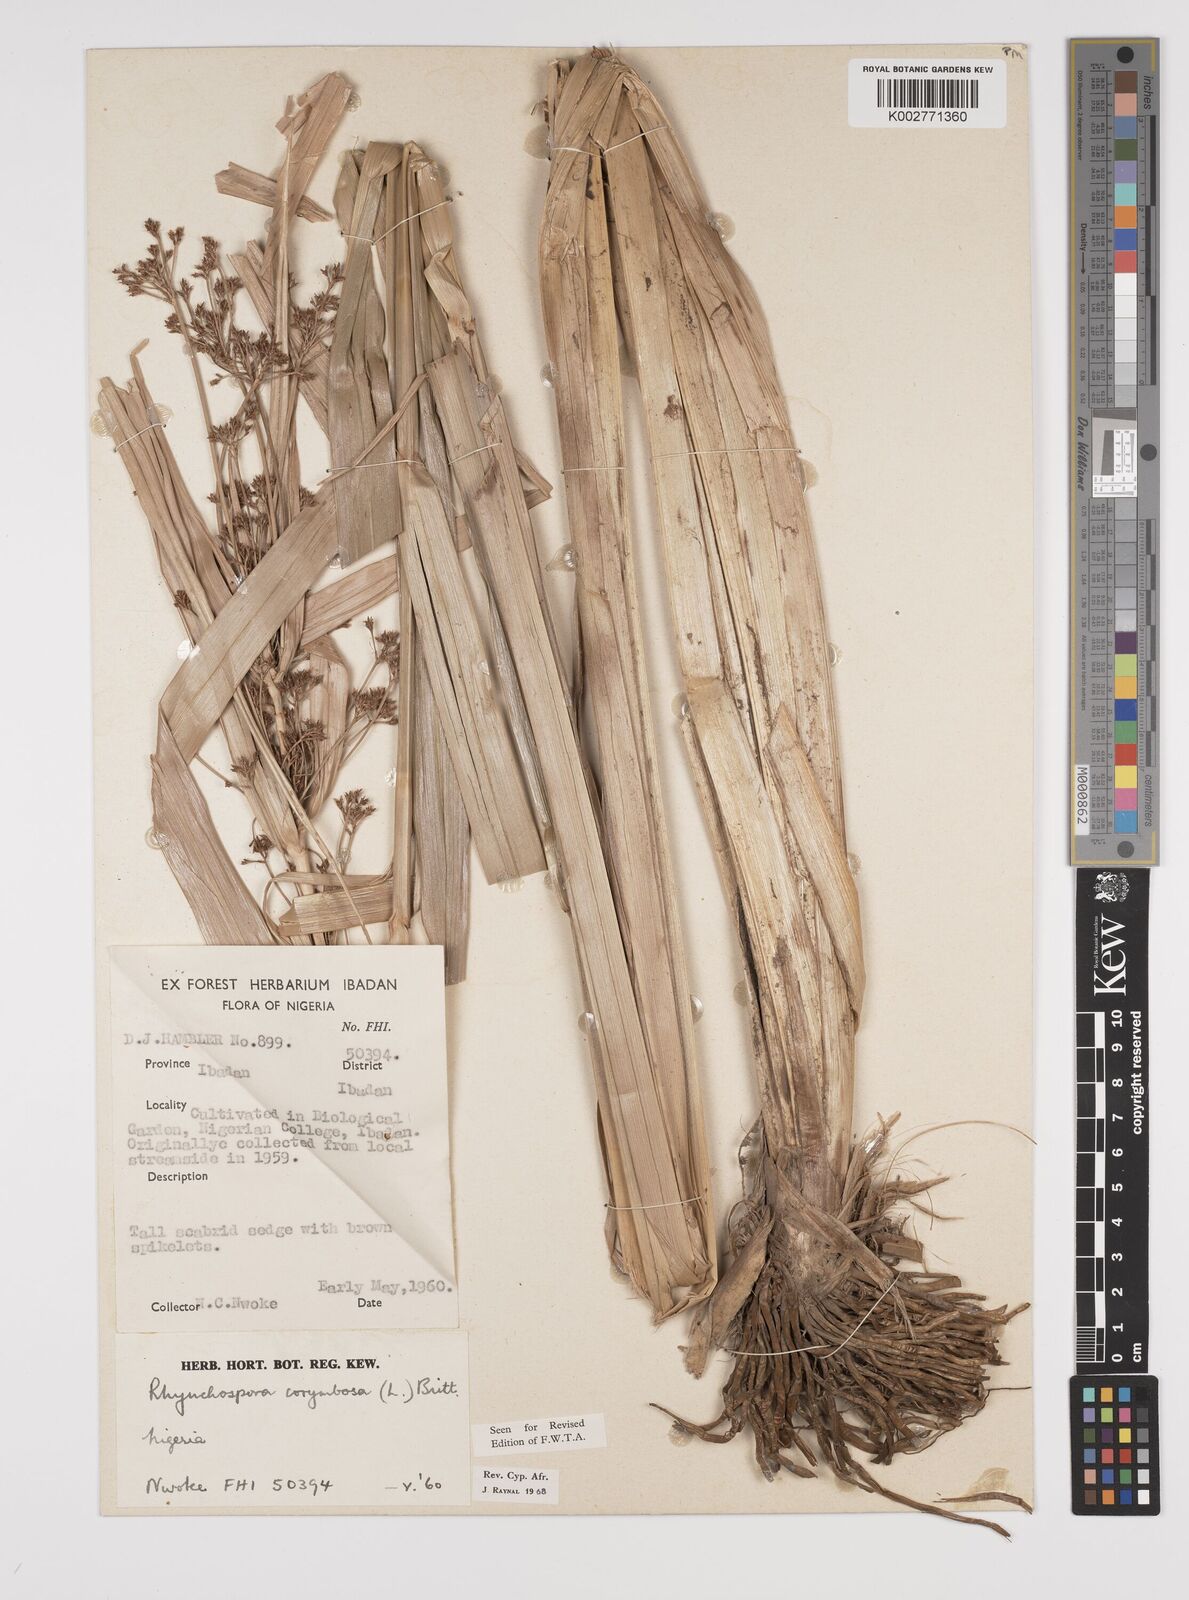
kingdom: Plantae
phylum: Tracheophyta
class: Liliopsida
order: Poales
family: Cyperaceae
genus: Rhynchospora
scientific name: Rhynchospora corymbosa
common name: Golden beak sedge
